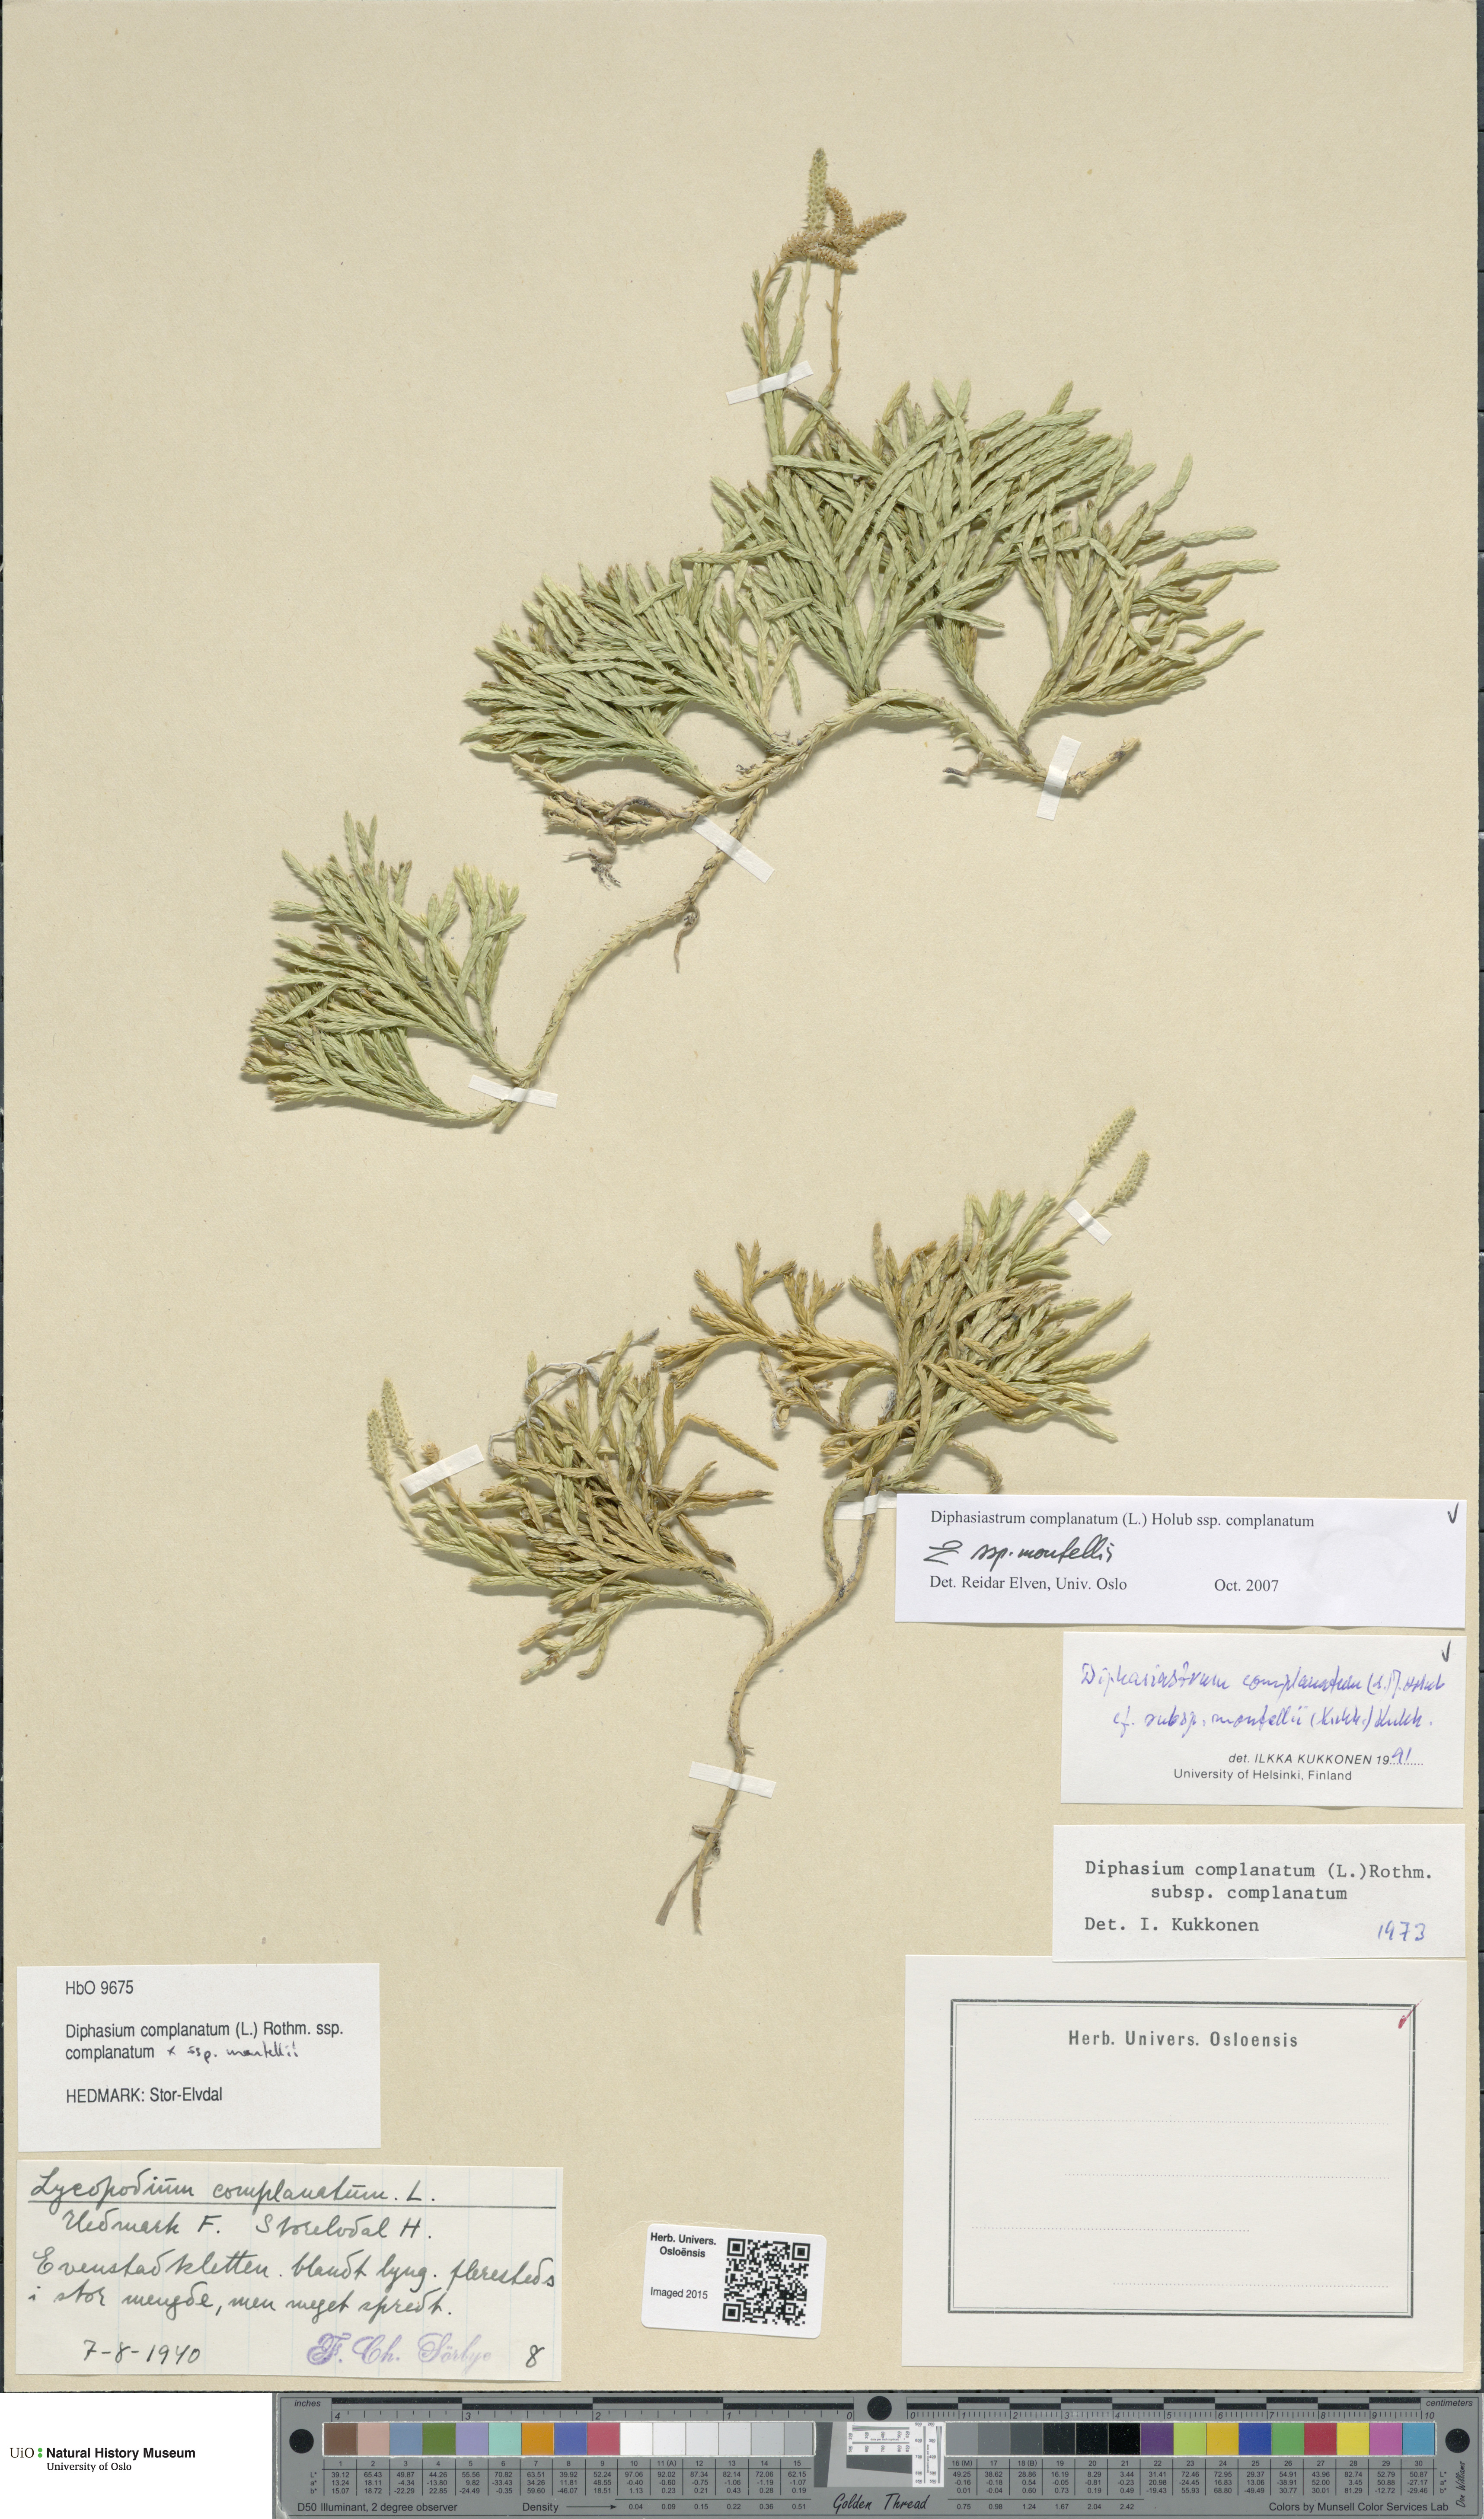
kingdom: Plantae
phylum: Tracheophyta
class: Lycopodiopsida
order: Lycopodiales
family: Lycopodiaceae
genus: Diphasiastrum
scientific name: Diphasiastrum
